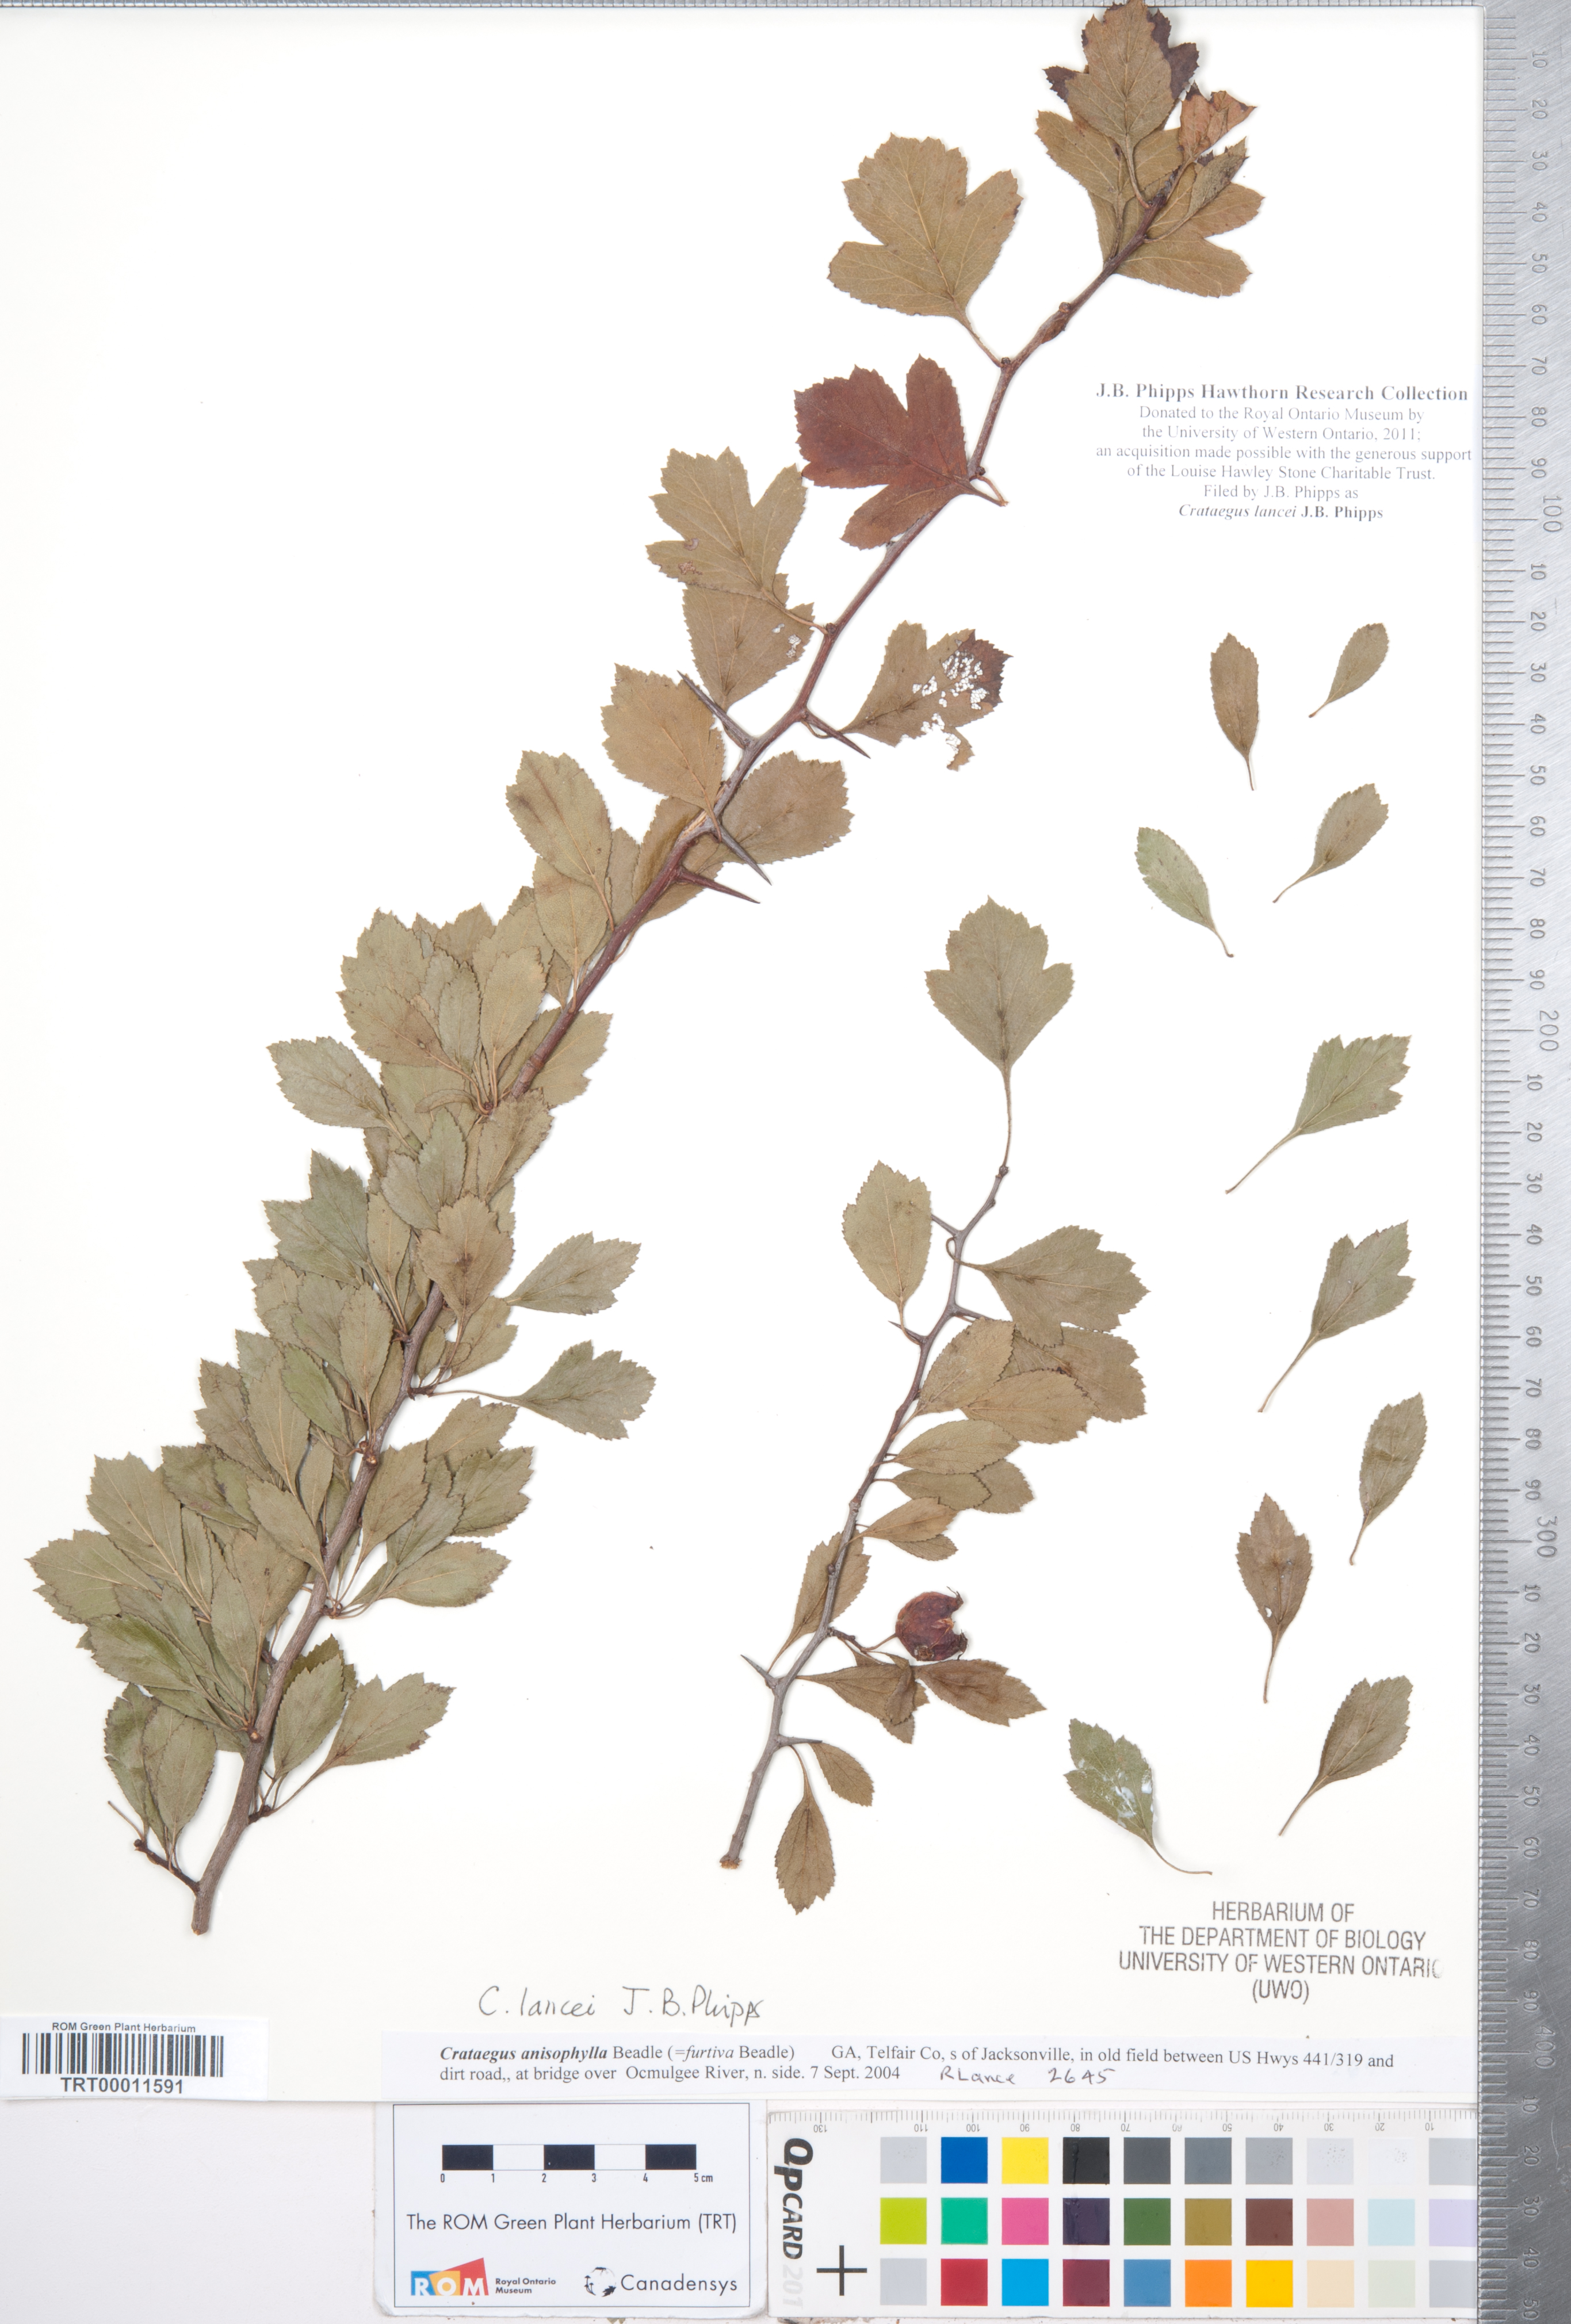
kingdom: Plantae
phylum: Tracheophyta
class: Magnoliopsida
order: Rosales
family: Rosaceae
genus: Crataegus
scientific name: Crataegus senta
